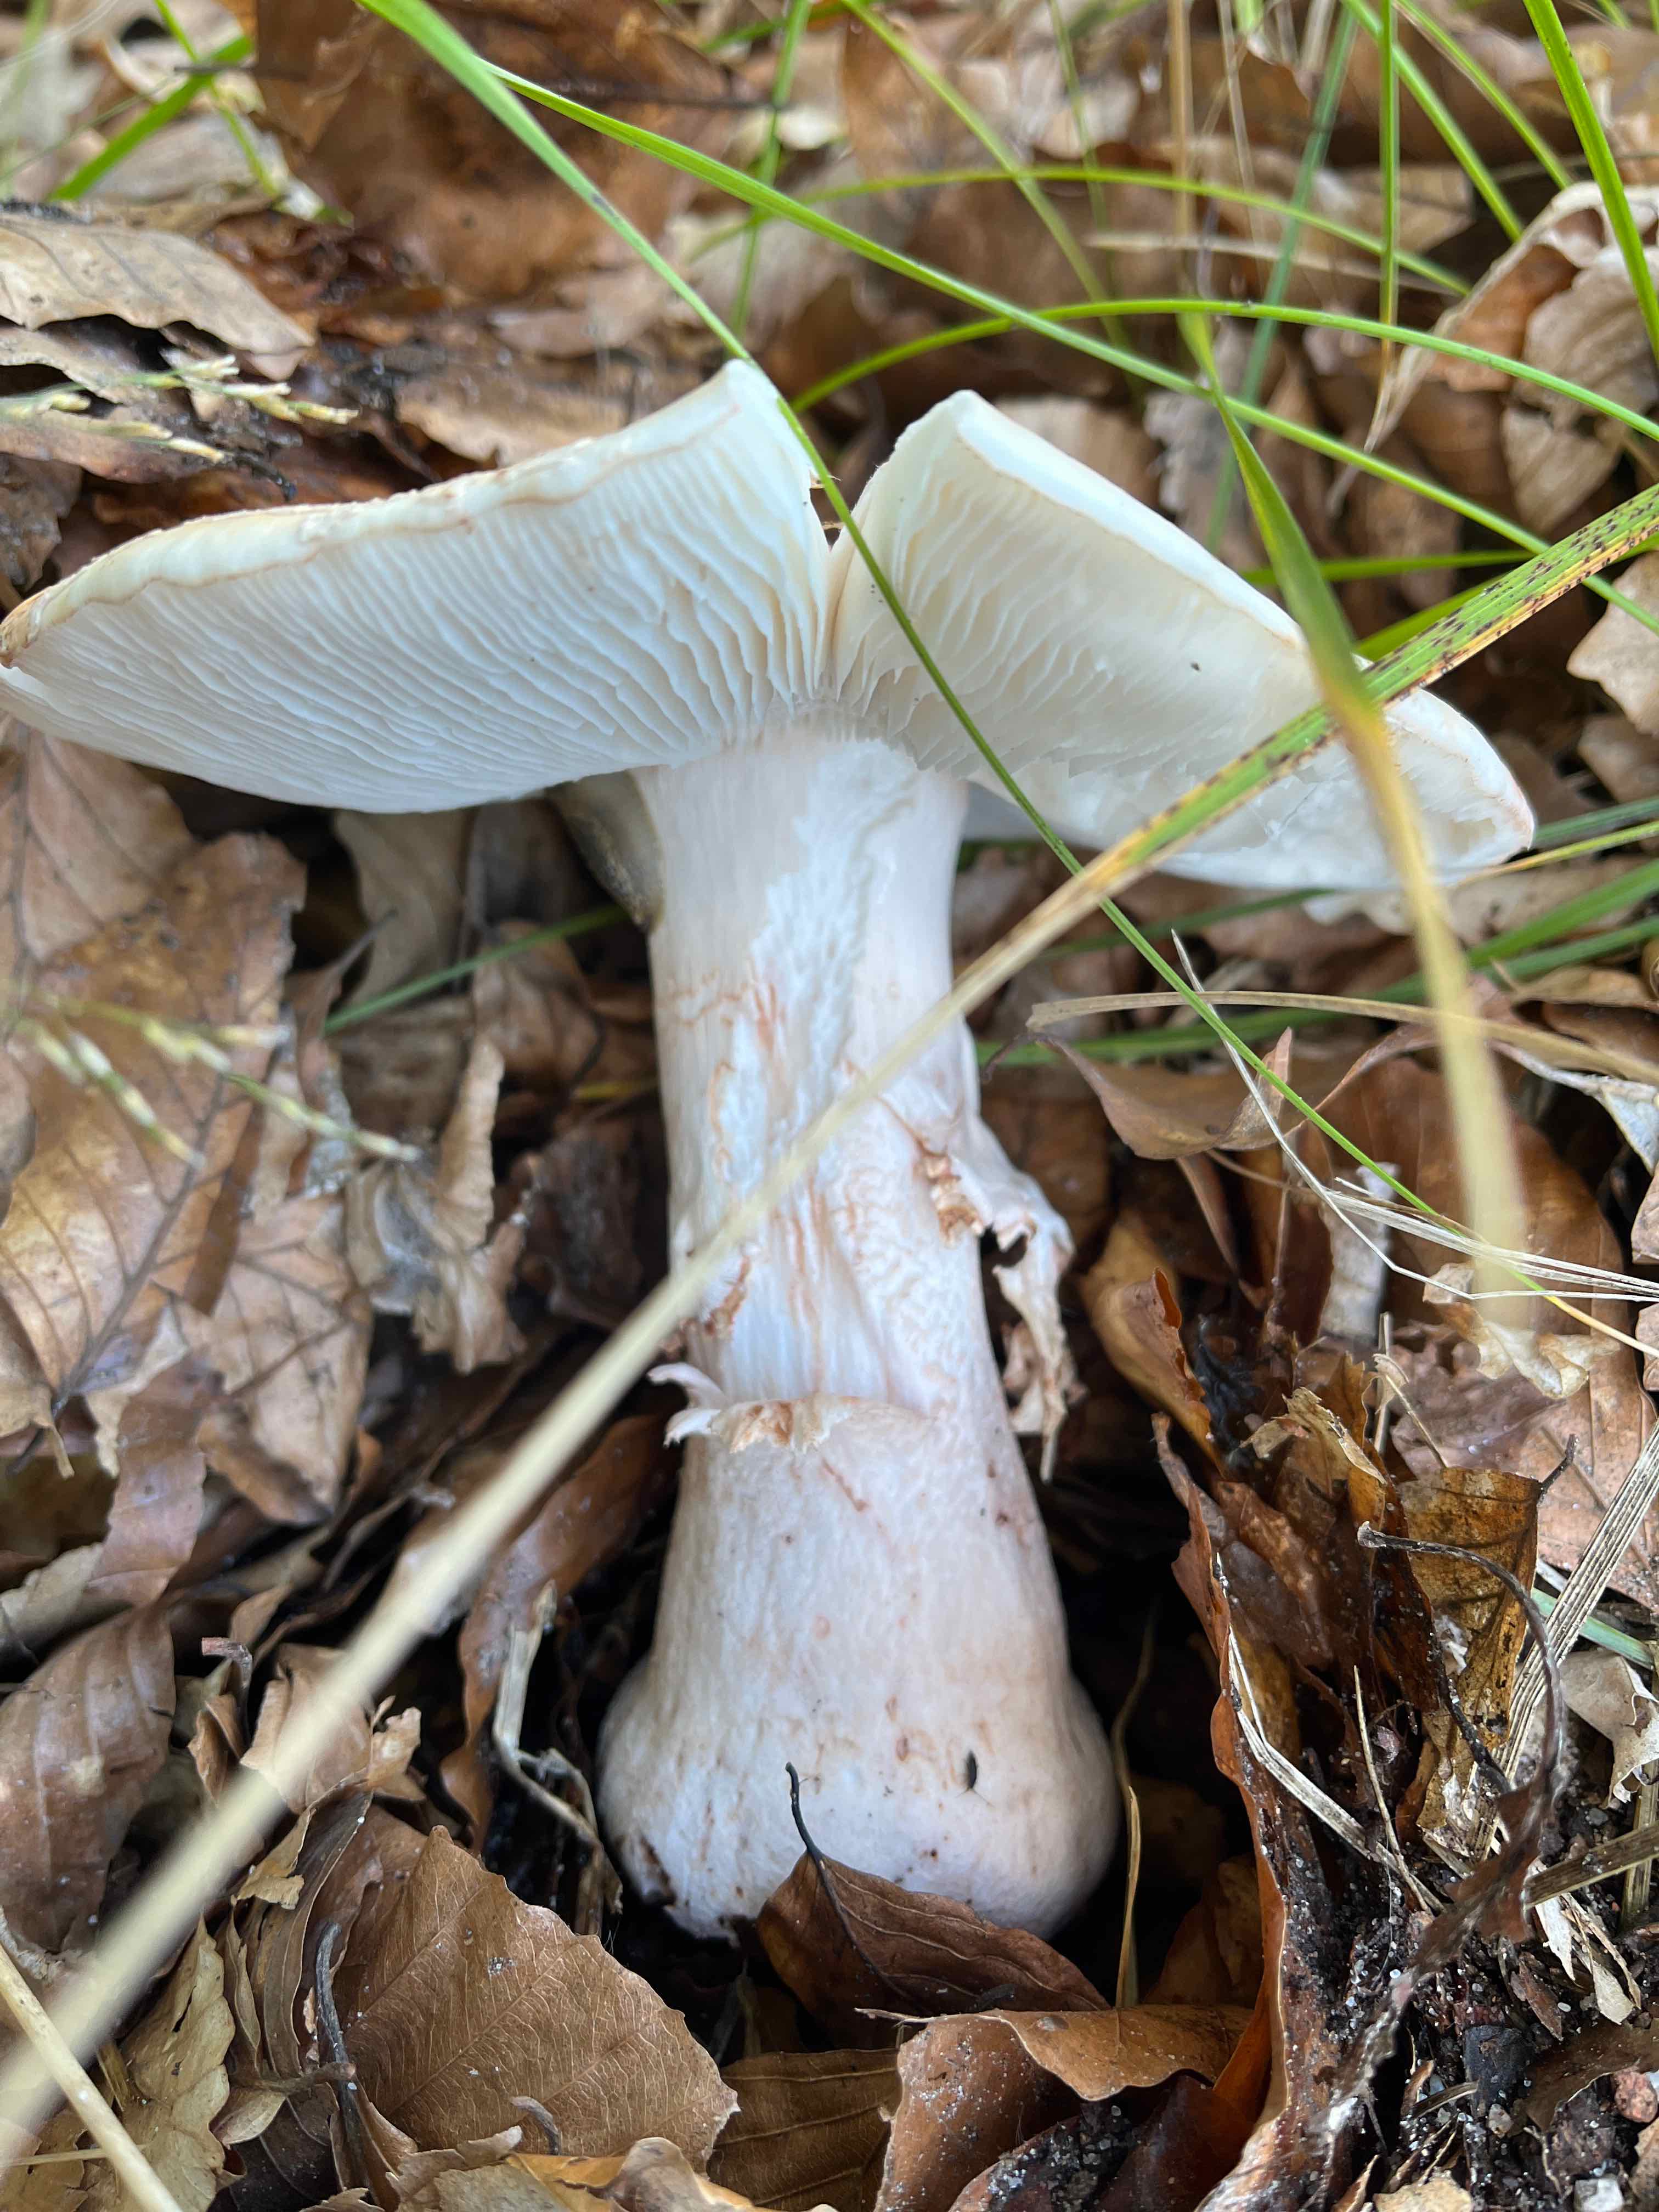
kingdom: Fungi
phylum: Basidiomycota
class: Agaricomycetes
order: Agaricales
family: Amanitaceae
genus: Amanita
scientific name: Amanita rubescens
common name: rødmende fluesvamp
